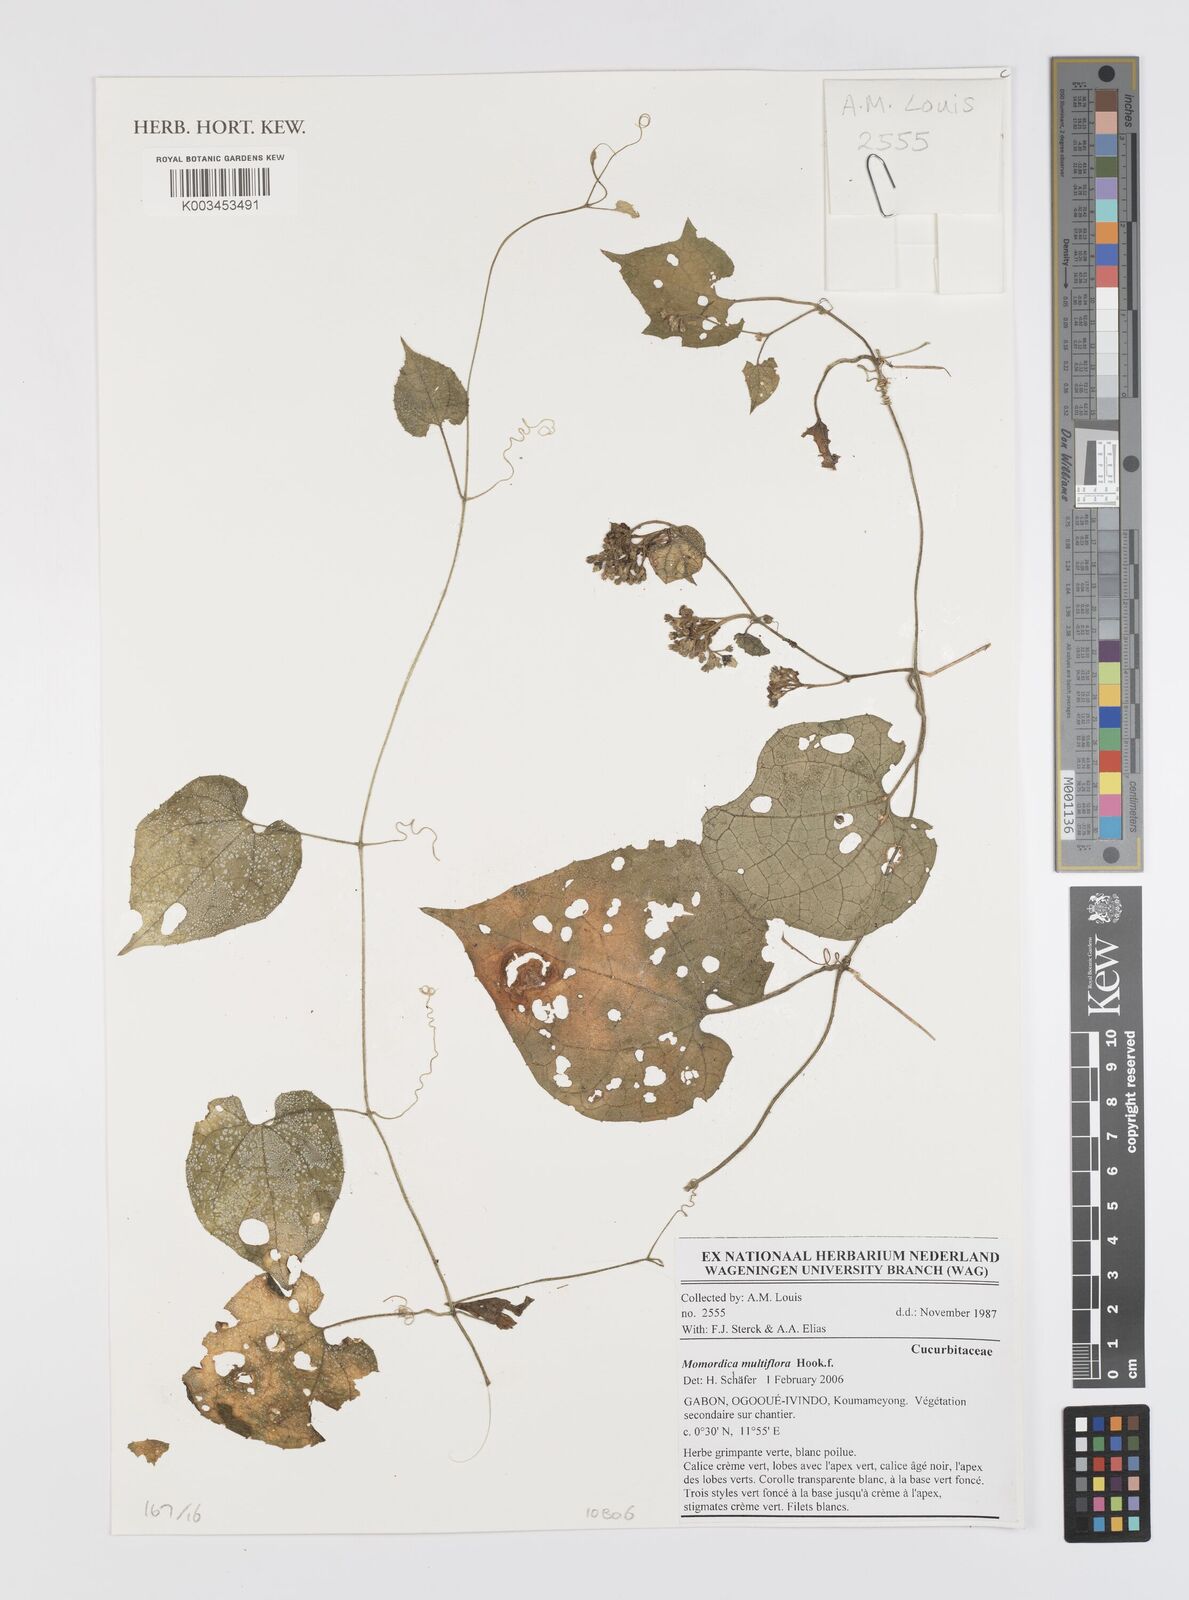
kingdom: Plantae
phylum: Tracheophyta
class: Magnoliopsida
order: Cucurbitales
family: Cucurbitaceae
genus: Momordica
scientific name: Momordica multiflora
